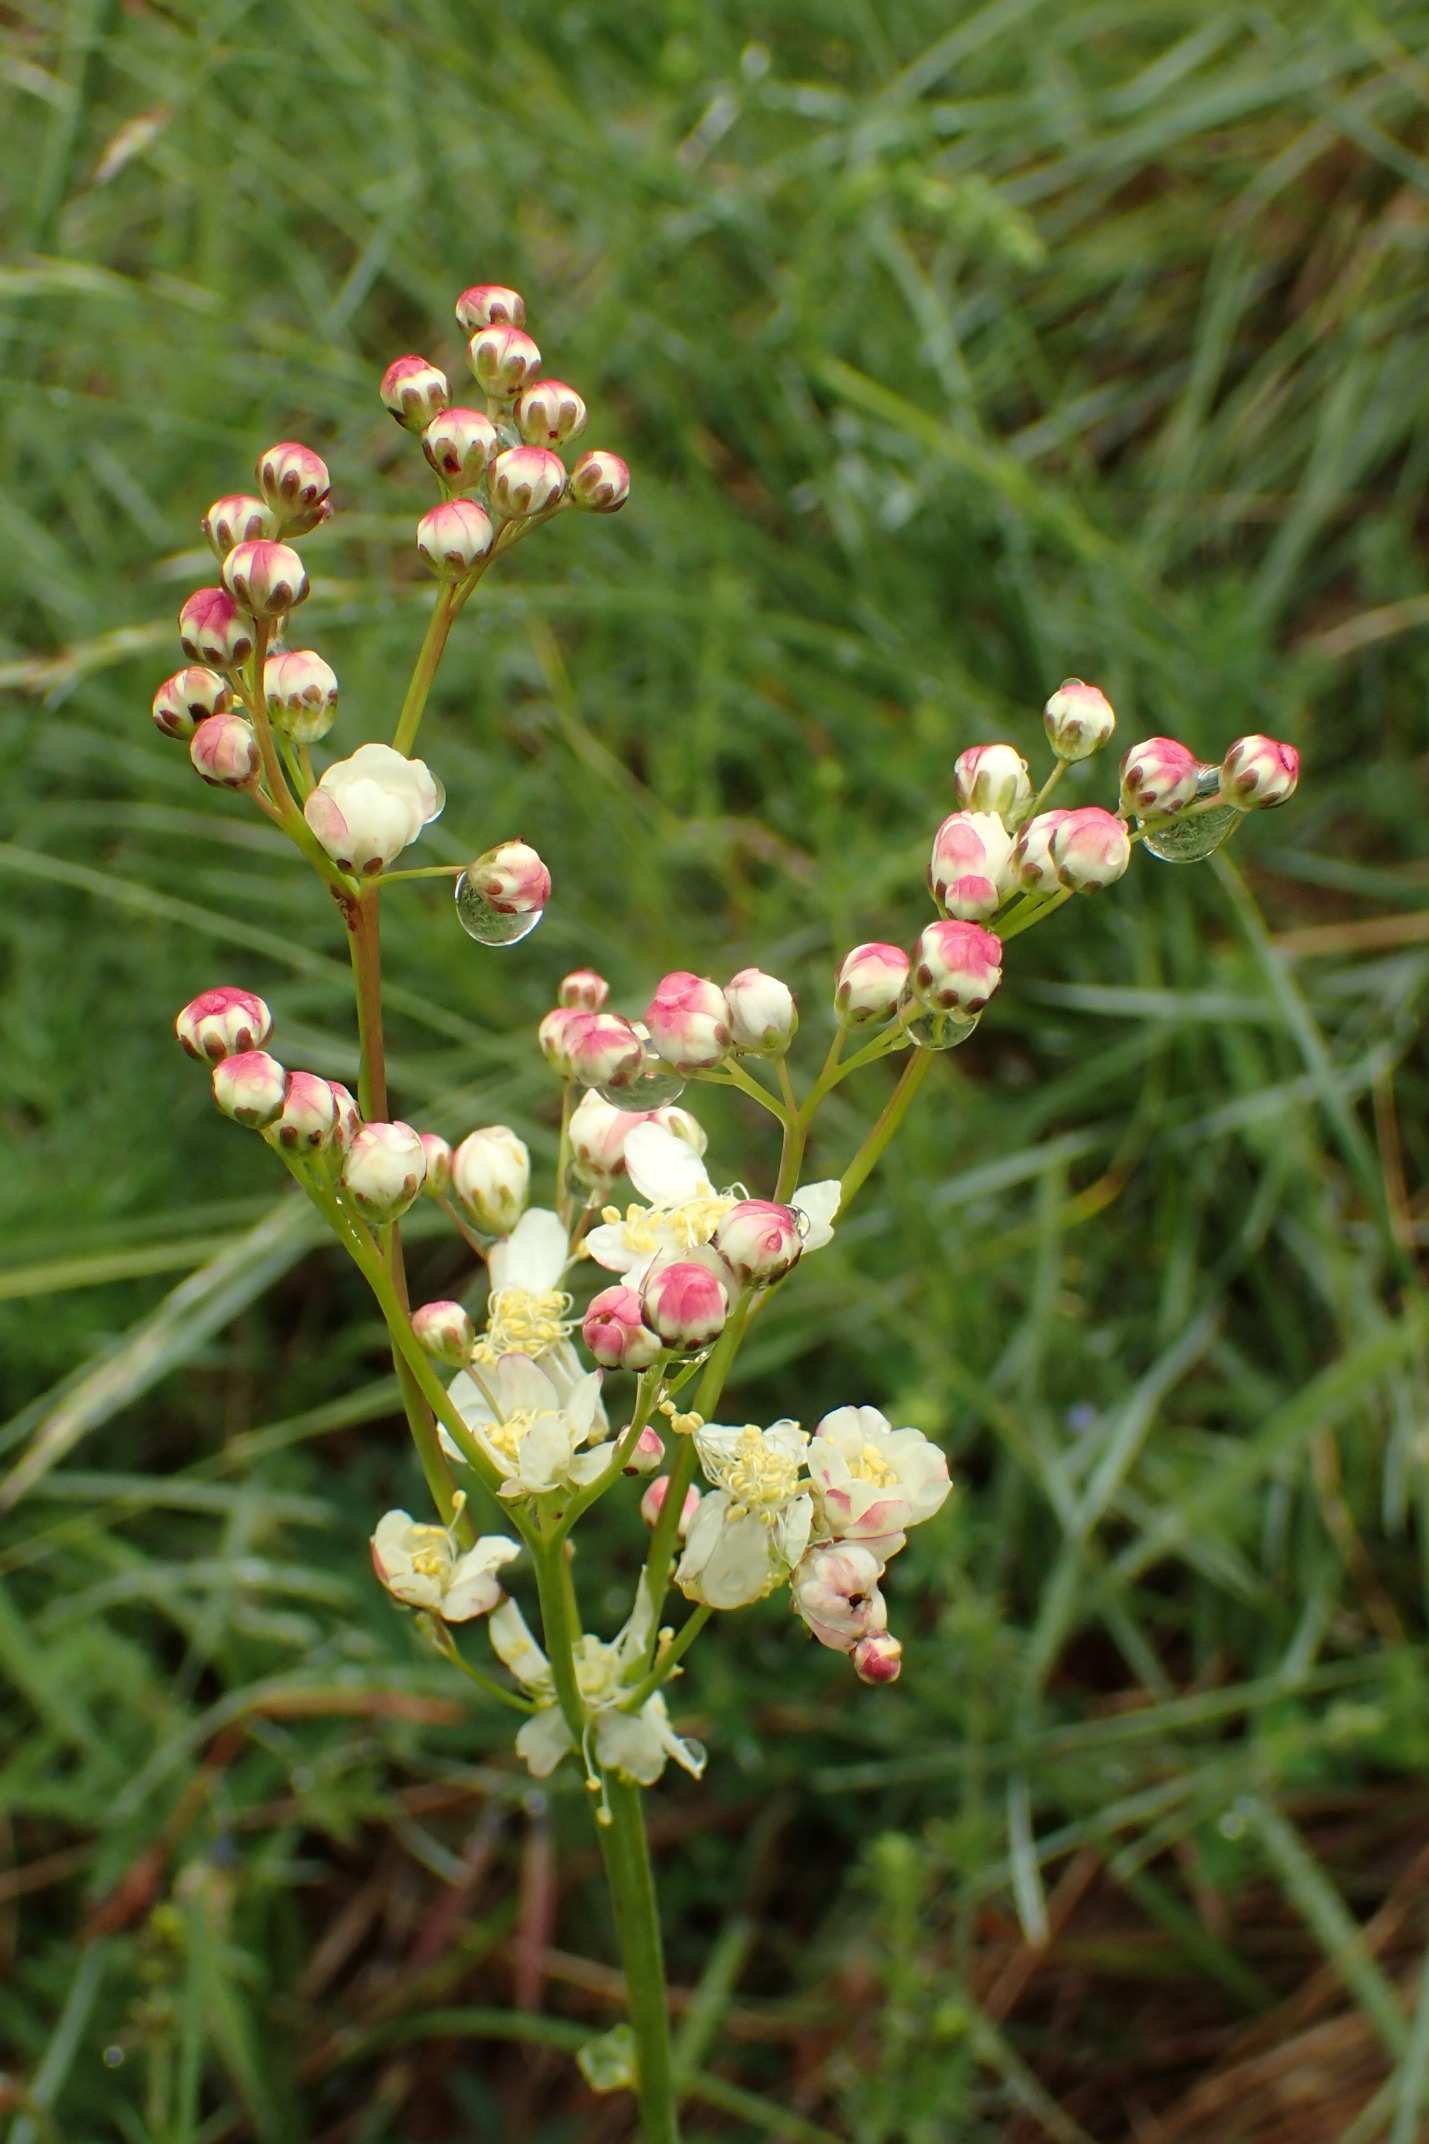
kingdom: Plantae
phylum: Tracheophyta
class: Magnoliopsida
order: Rosales
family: Rosaceae
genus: Filipendula
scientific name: Filipendula vulgaris
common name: Knoldet mjødurt
